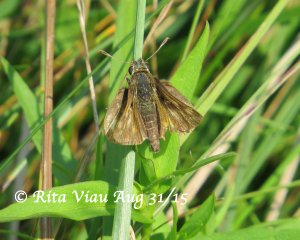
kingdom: Animalia
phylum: Arthropoda
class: Insecta
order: Lepidoptera
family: Hesperiidae
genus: Polites
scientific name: Polites coras
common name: Peck's Skipper
